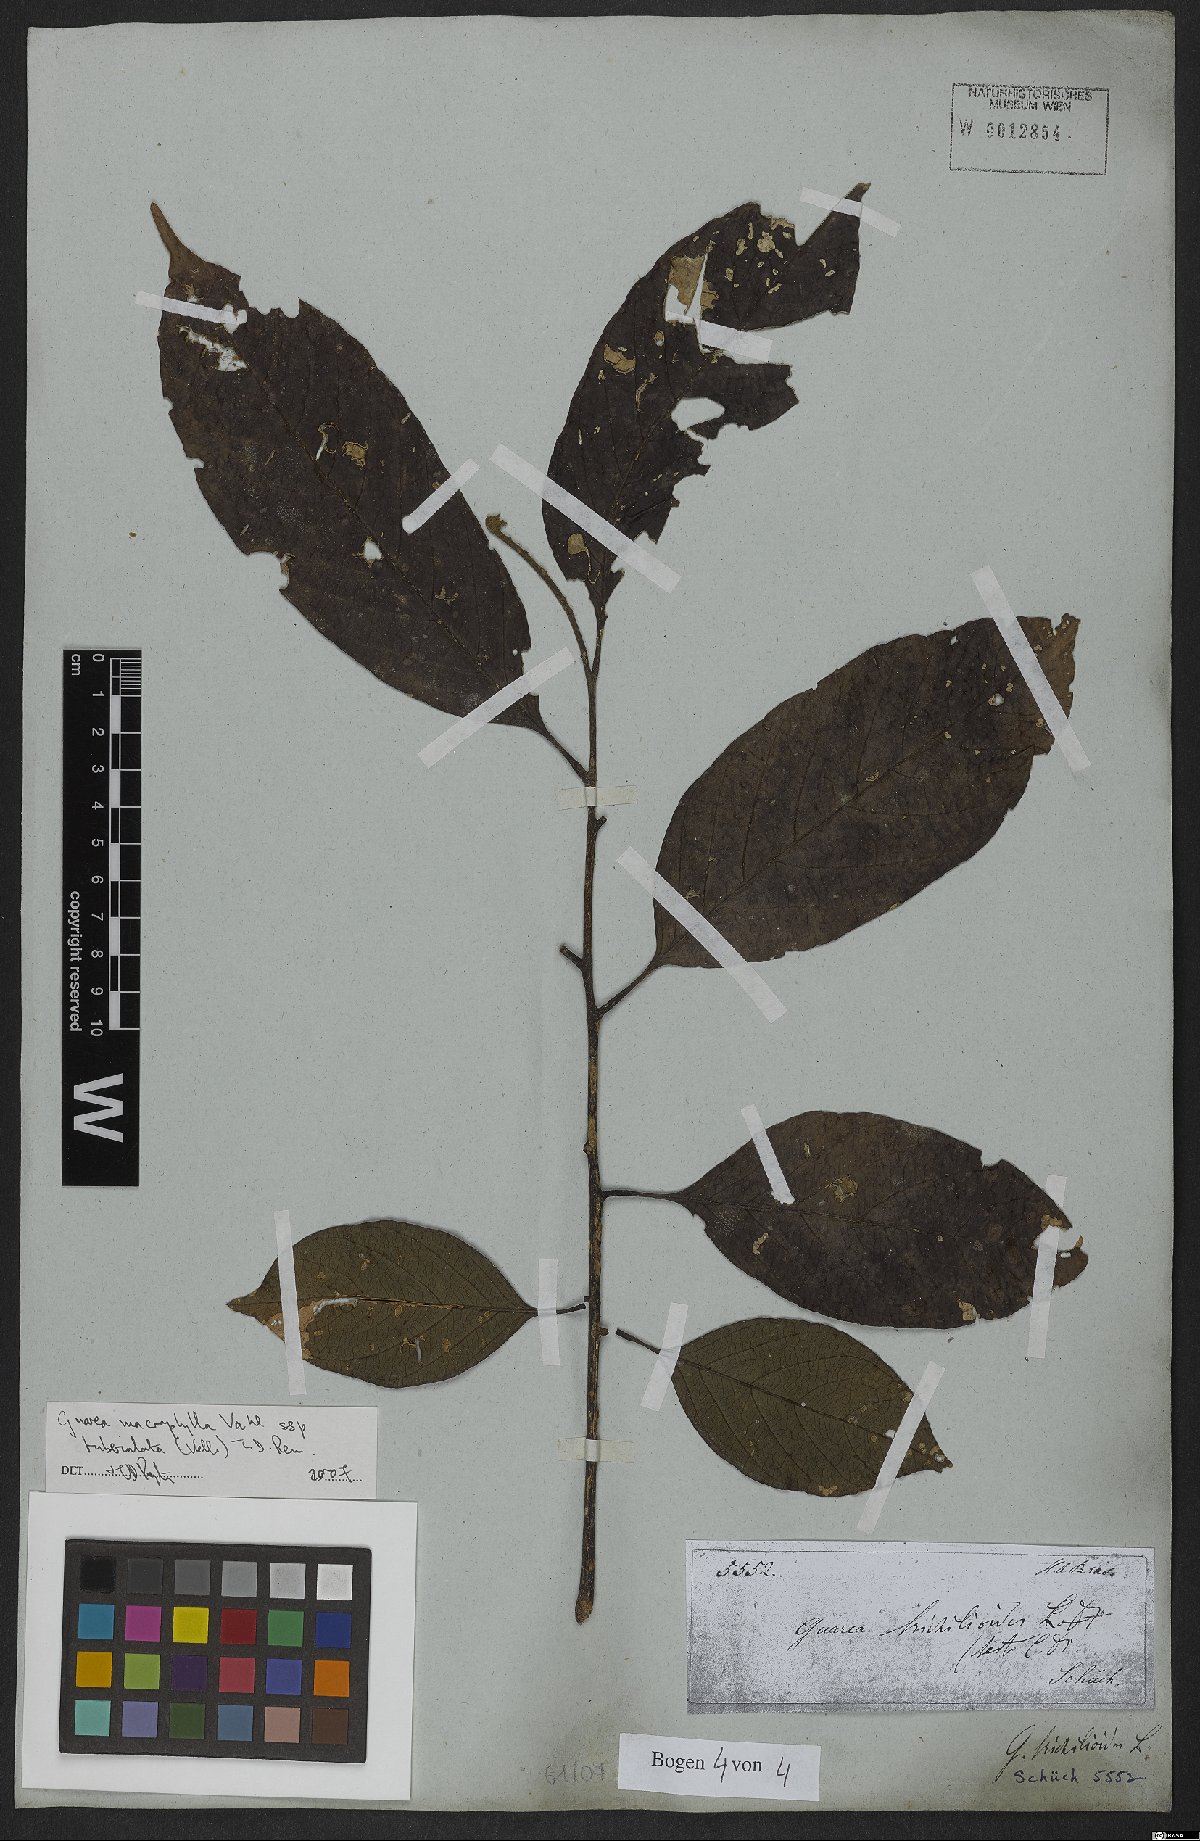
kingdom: Plantae
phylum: Tracheophyta
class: Magnoliopsida
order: Sapindales
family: Meliaceae
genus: Guarea
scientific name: Guarea macrophylla
